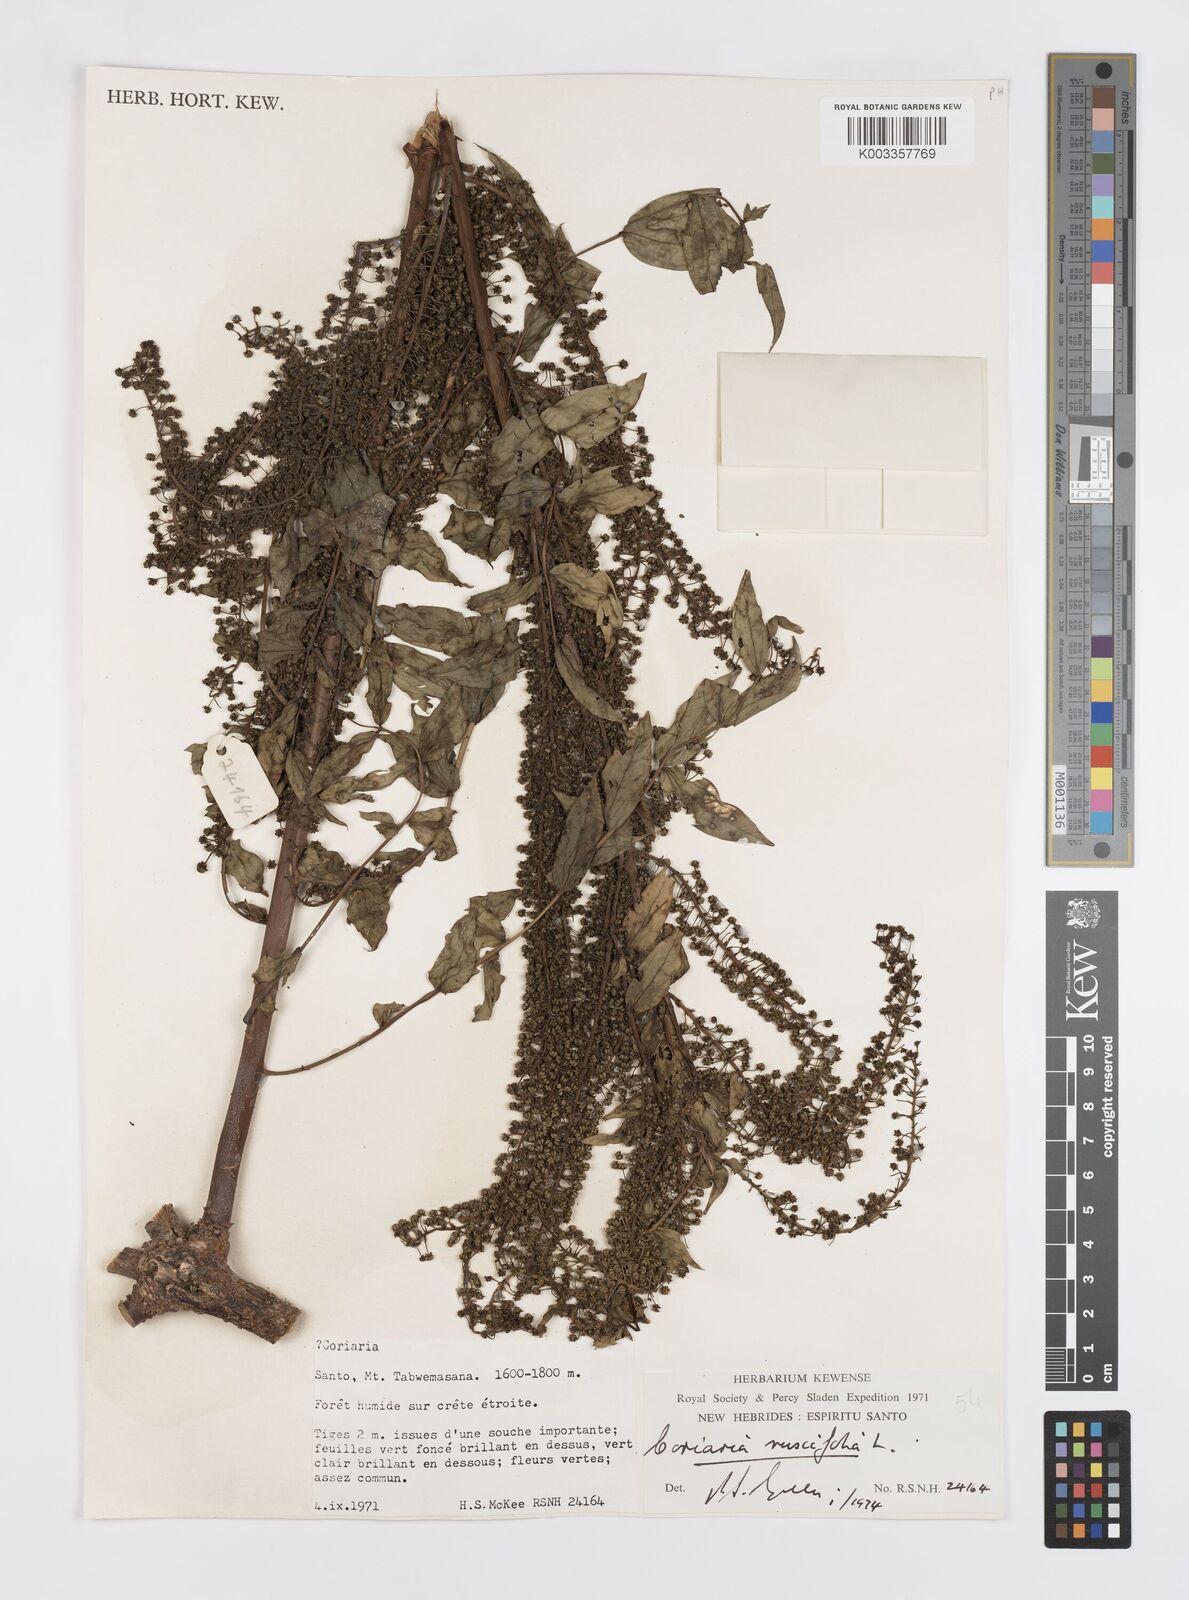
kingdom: Plantae
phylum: Tracheophyta
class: Magnoliopsida
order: Cucurbitales
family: Coriariaceae
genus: Coriaria
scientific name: Coriaria ruscifolia
